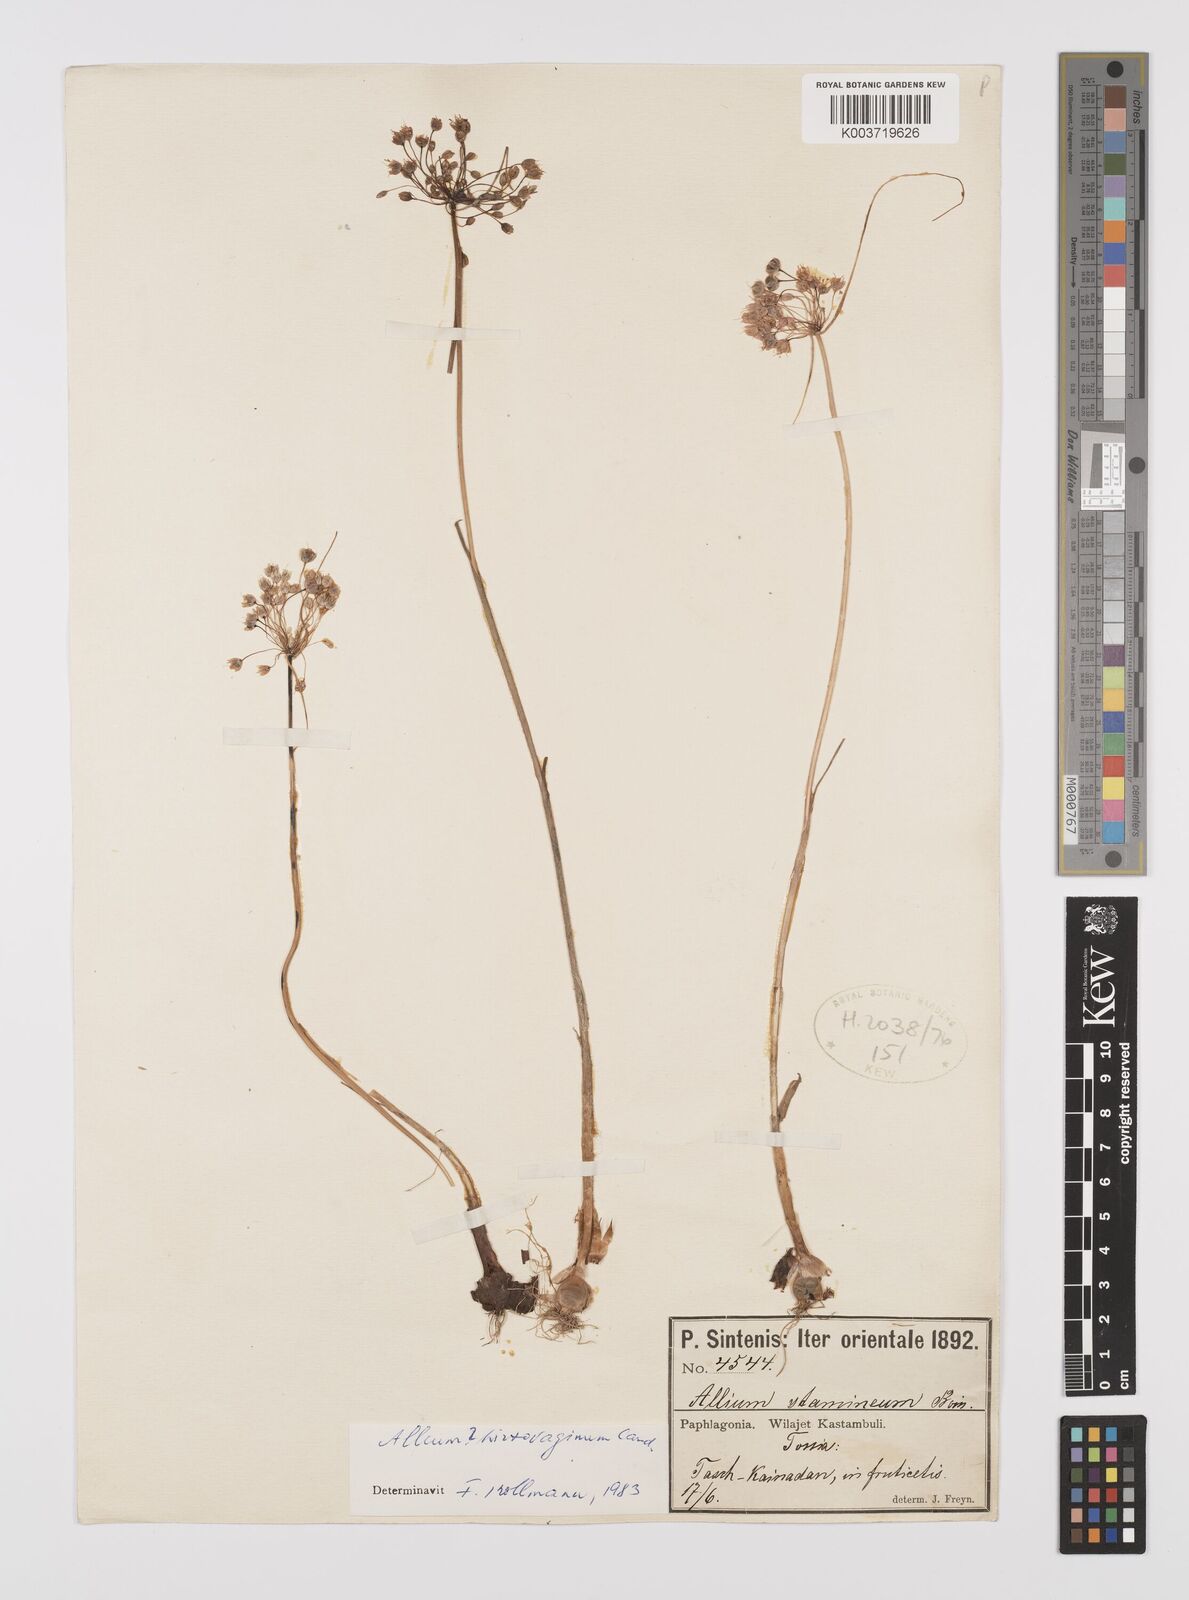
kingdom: Plantae
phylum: Tracheophyta
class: Liliopsida
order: Asparagales
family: Amaryllidaceae
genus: Allium
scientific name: Allium hirtovaginum
